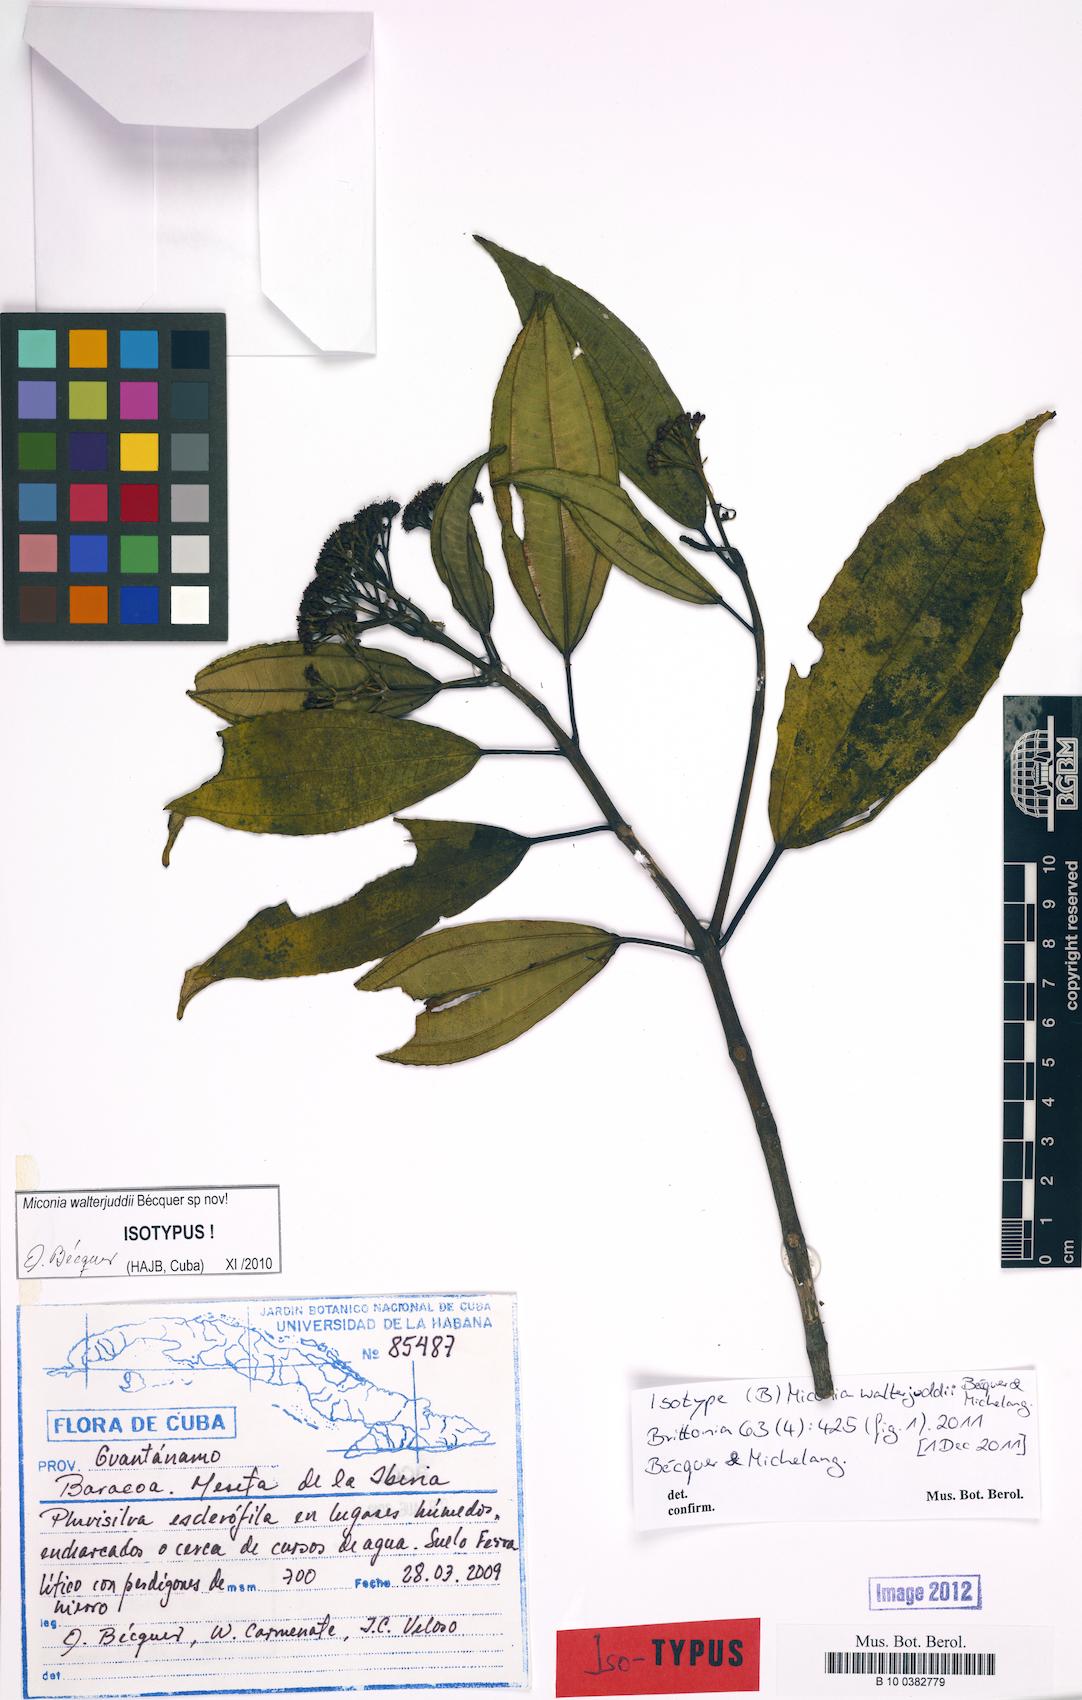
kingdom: Plantae
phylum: Tracheophyta
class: Magnoliopsida
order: Myrtales
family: Melastomataceae
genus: Miconia
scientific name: Miconia walterjuddii
